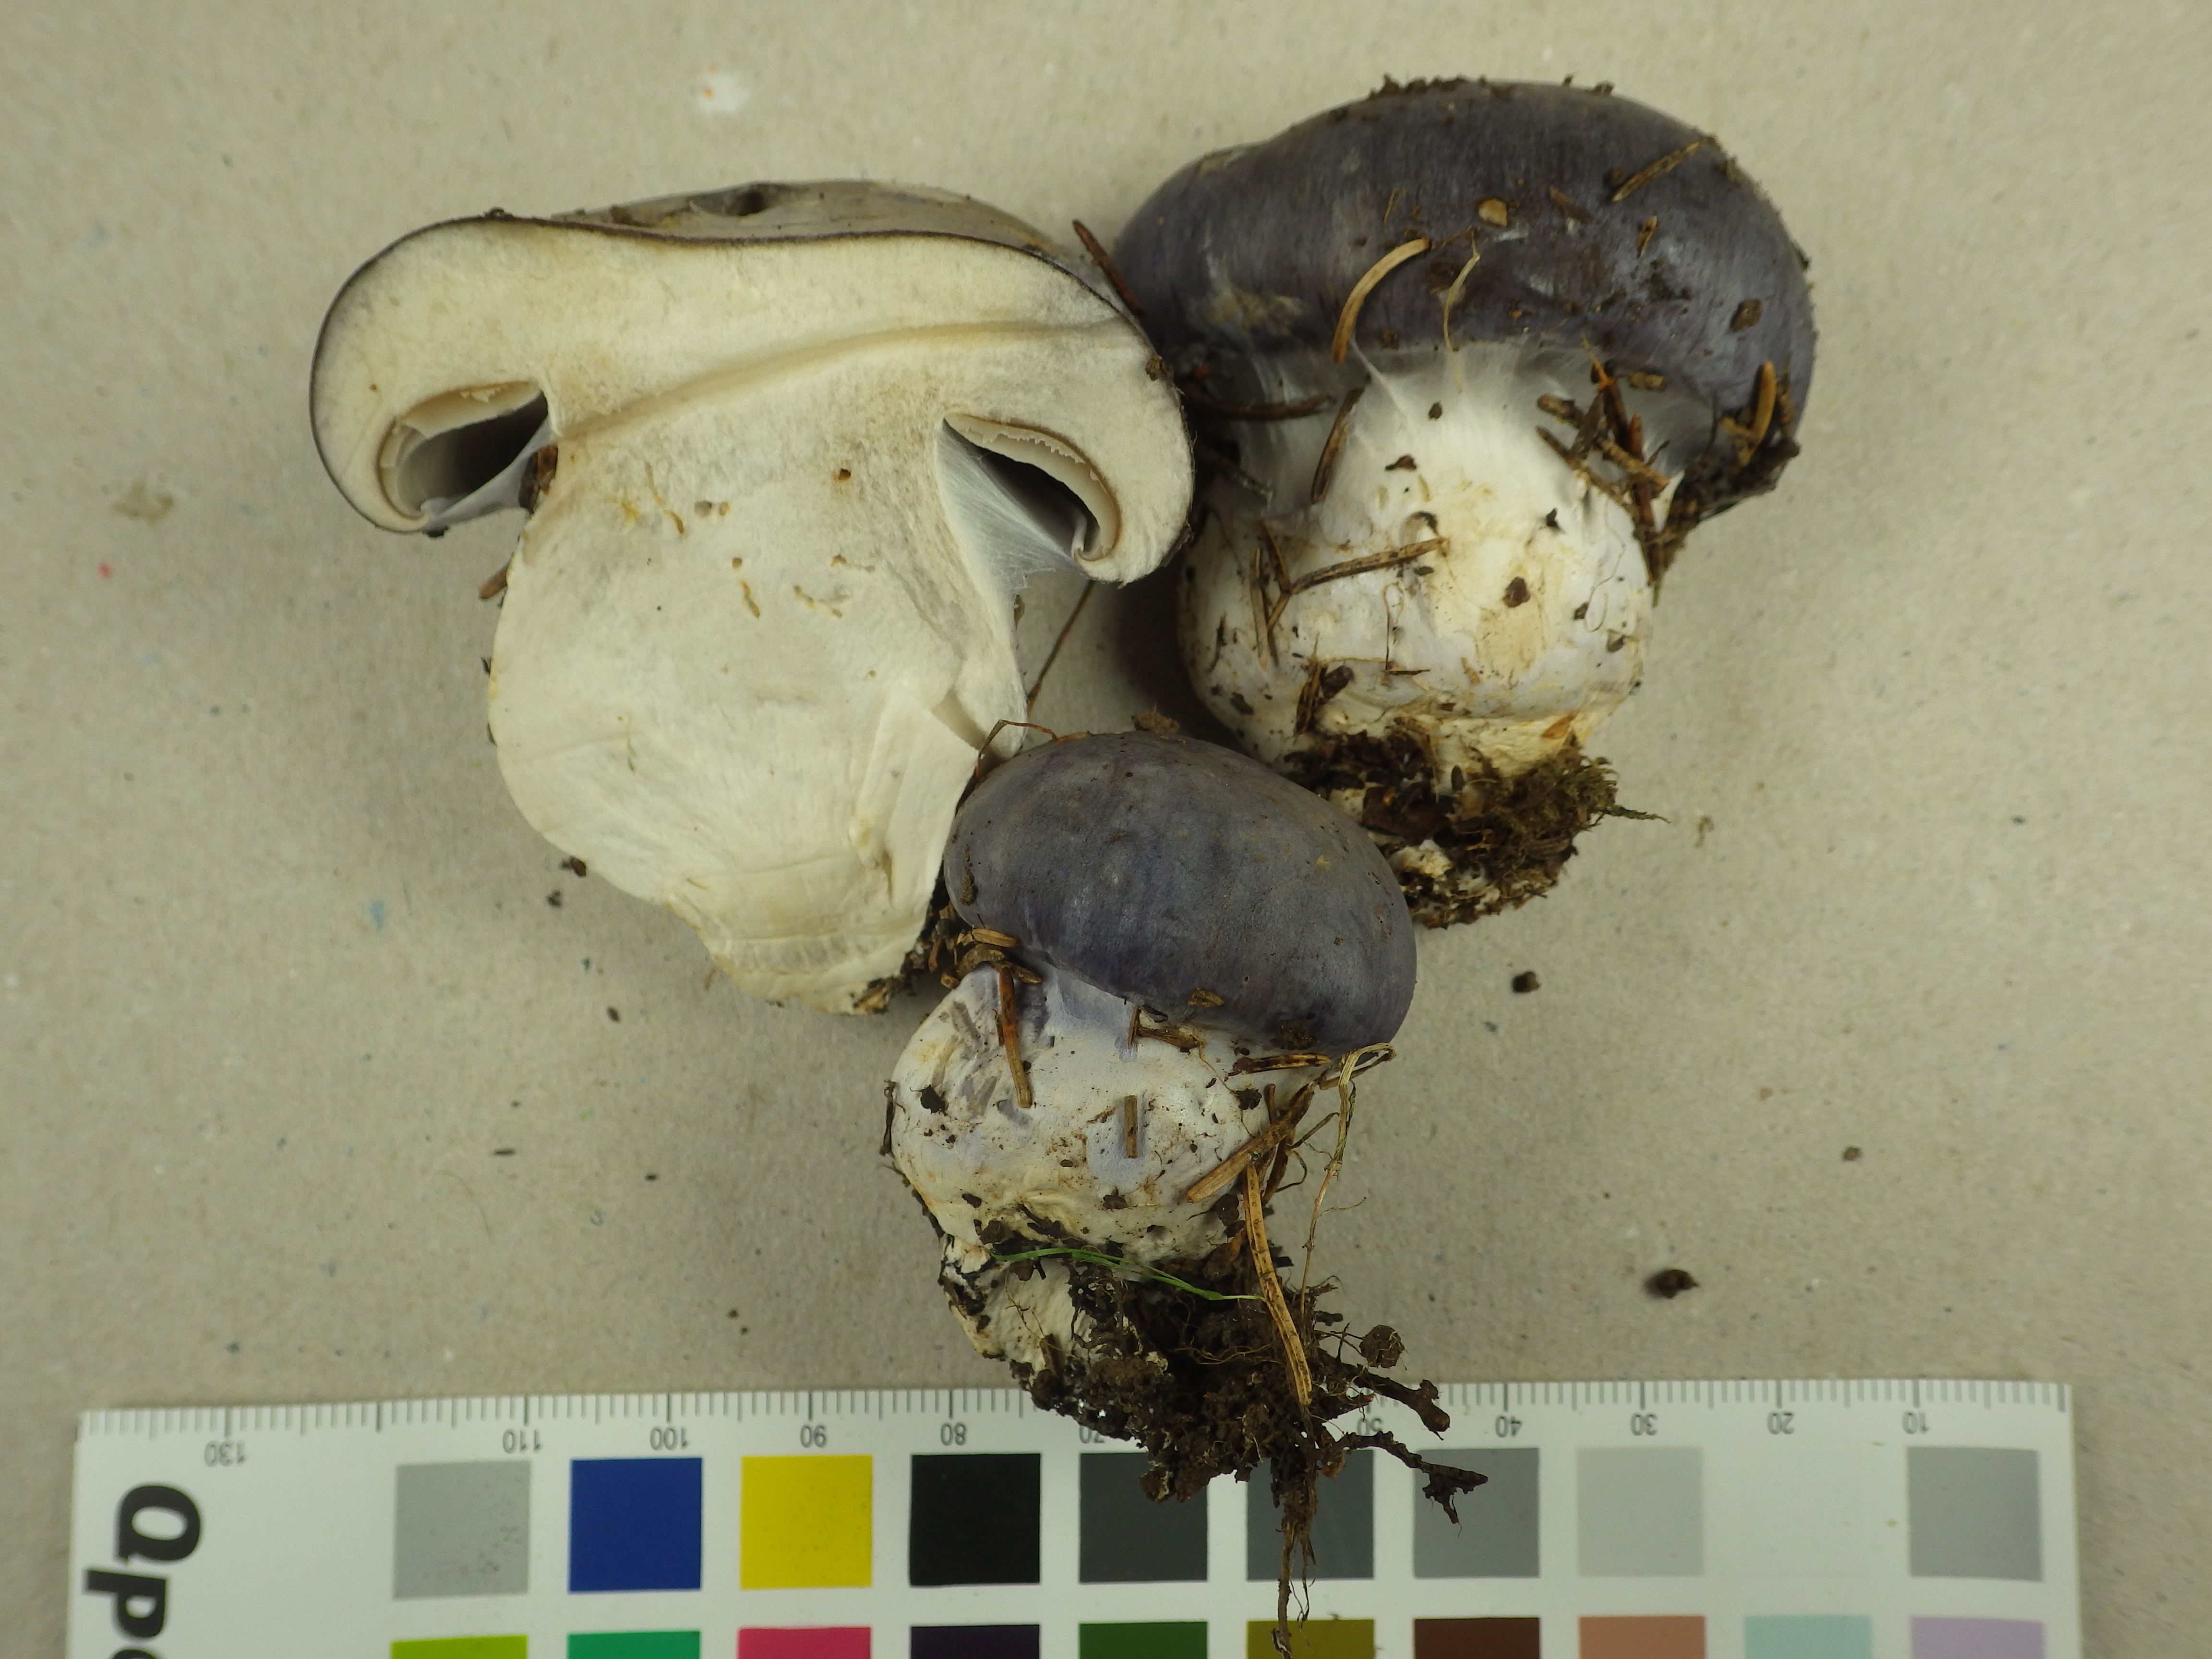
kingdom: Fungi
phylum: Basidiomycota
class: Agaricomycetes
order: Agaricales
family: Cortinariaceae
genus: Cortinarius
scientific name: Cortinarius cumatilis
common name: Wavy webcap
